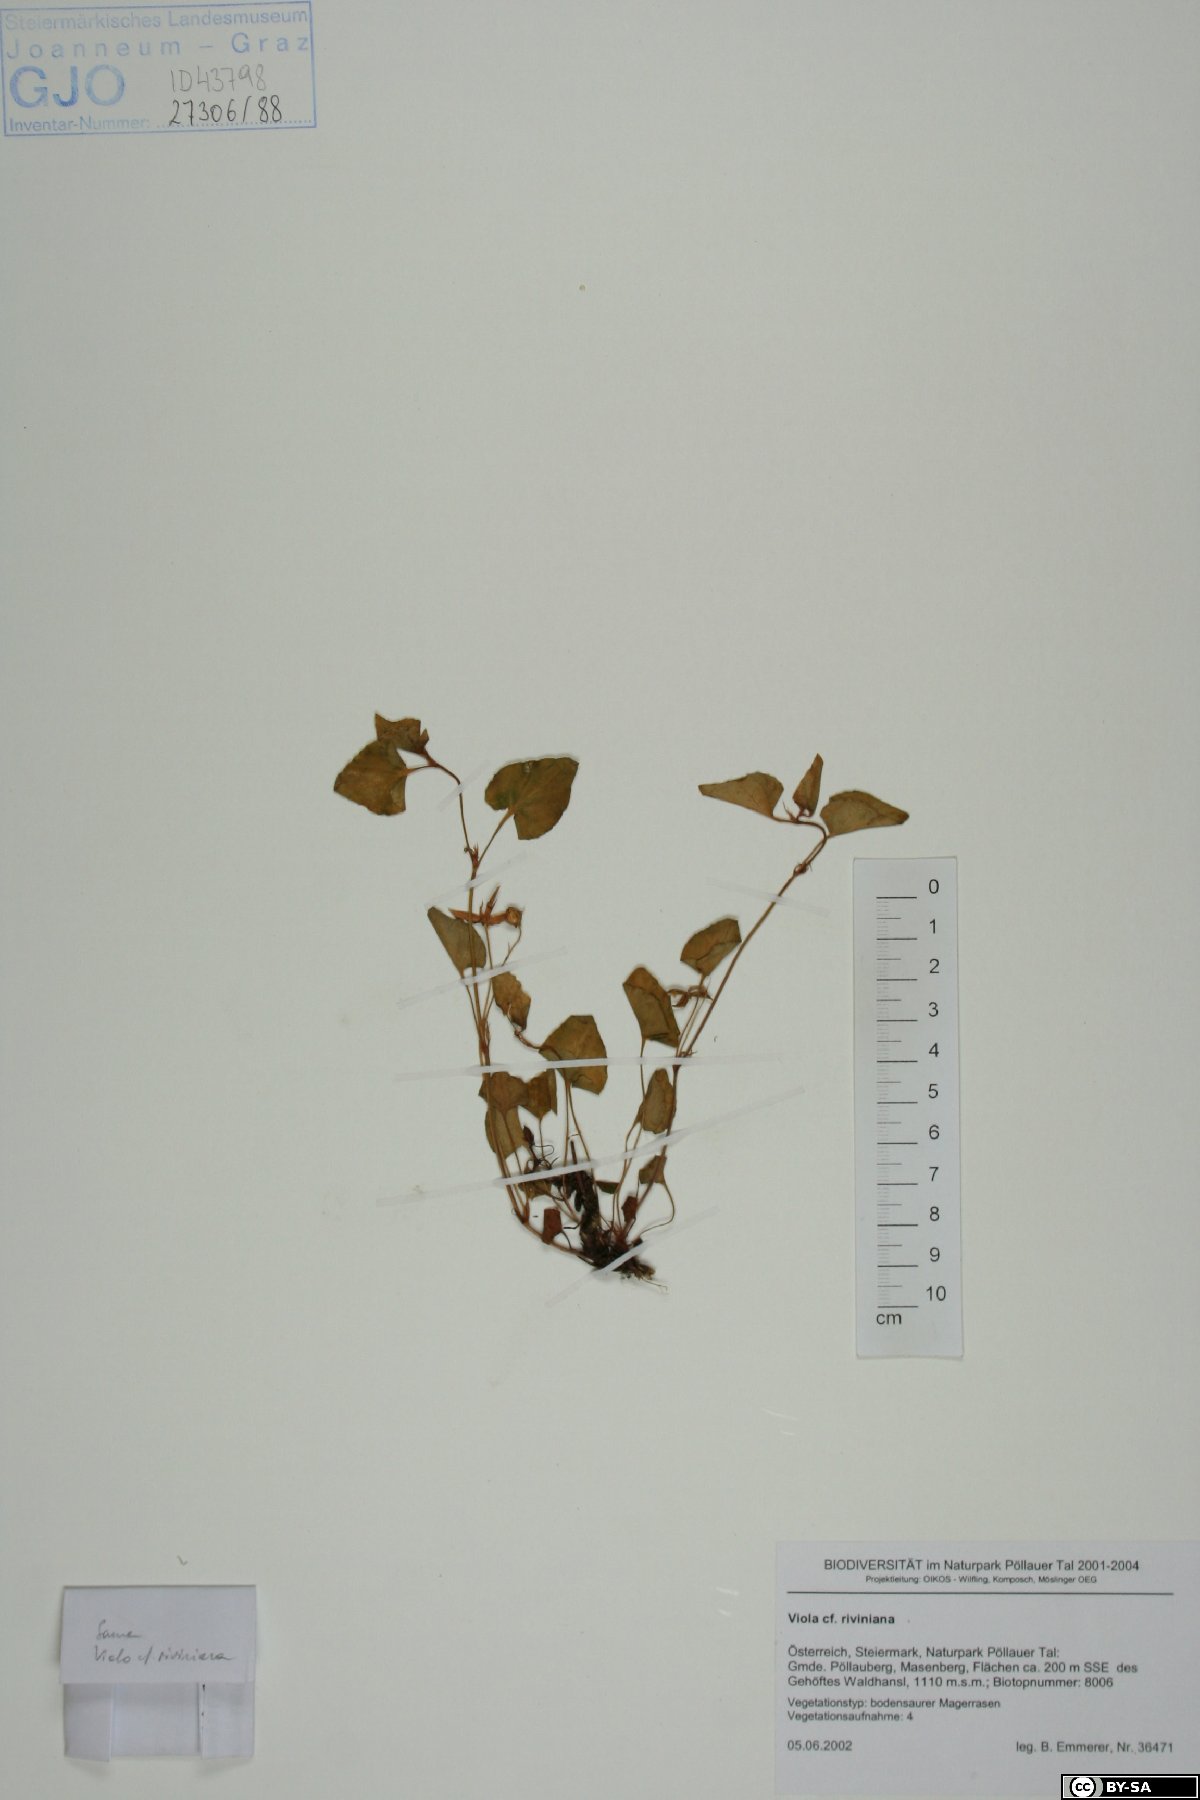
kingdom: Plantae
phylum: Tracheophyta
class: Magnoliopsida
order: Malpighiales
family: Violaceae
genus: Viola
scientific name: Viola riviniana
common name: Common dog-violet
